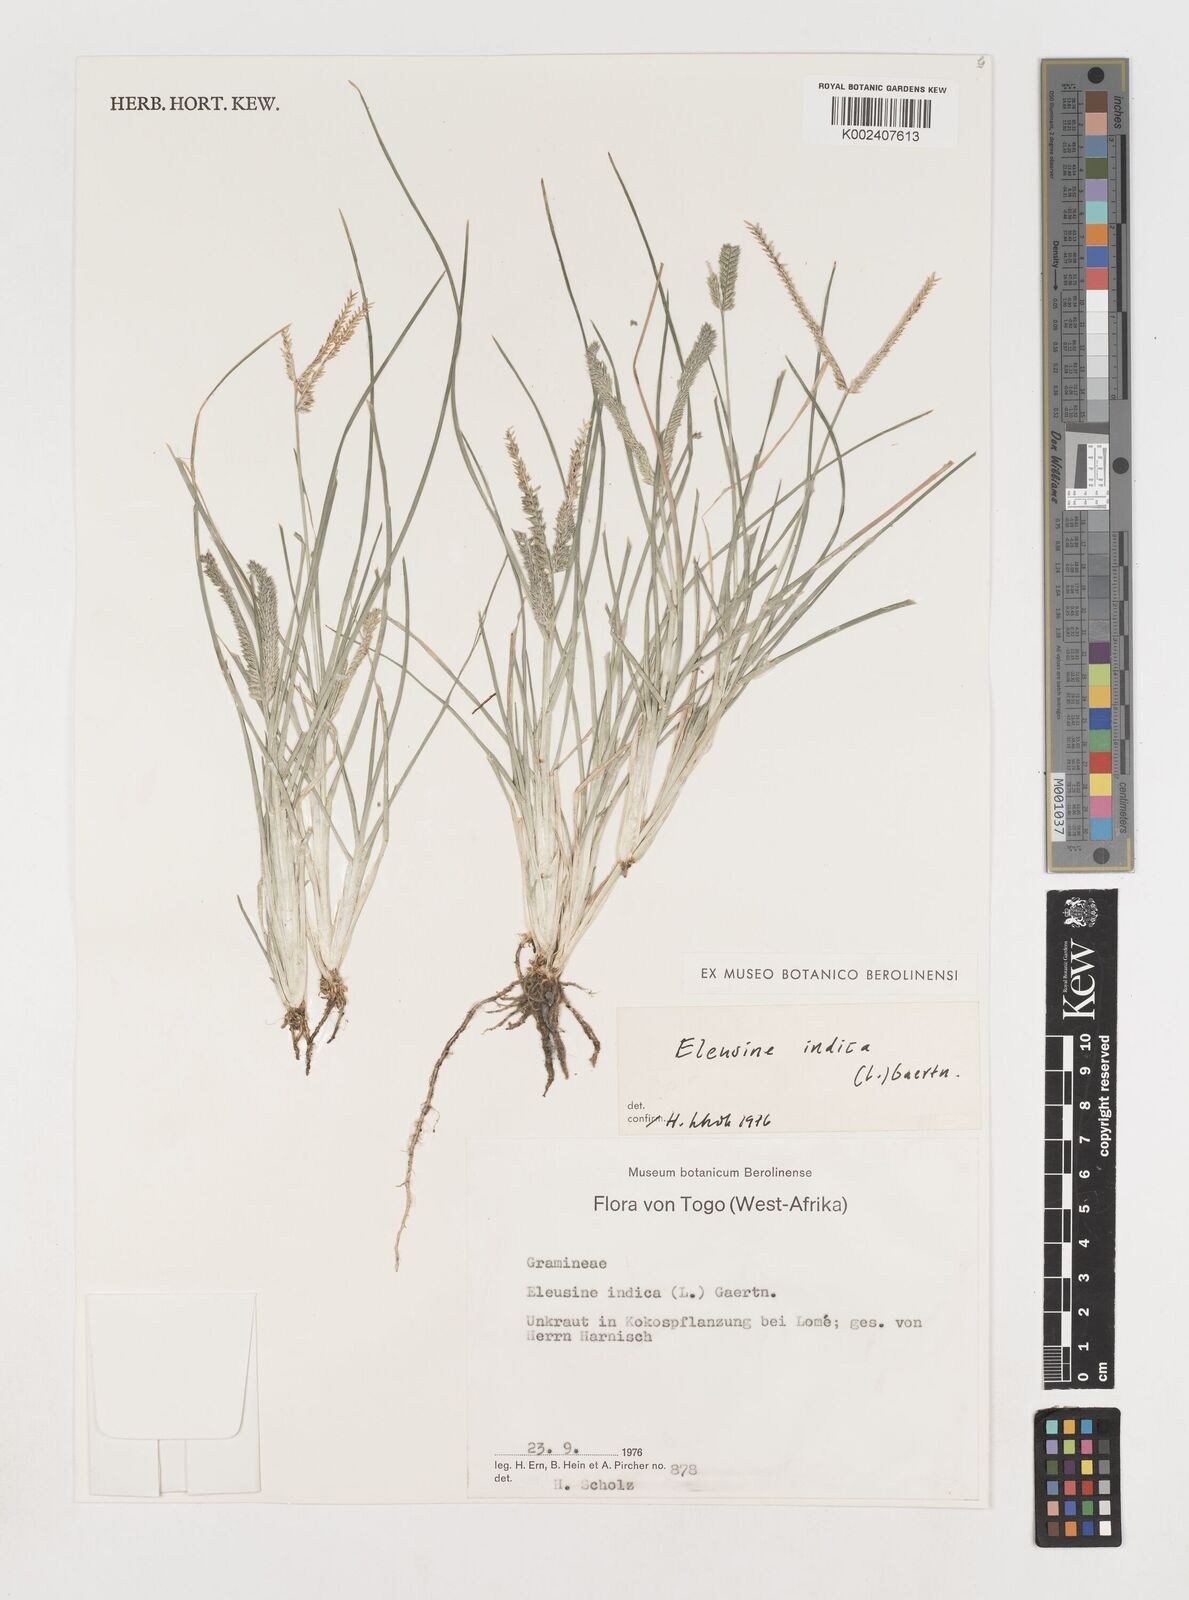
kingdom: Plantae
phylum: Tracheophyta
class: Liliopsida
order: Poales
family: Poaceae
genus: Eleusine
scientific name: Eleusine indica
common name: Yard-grass
